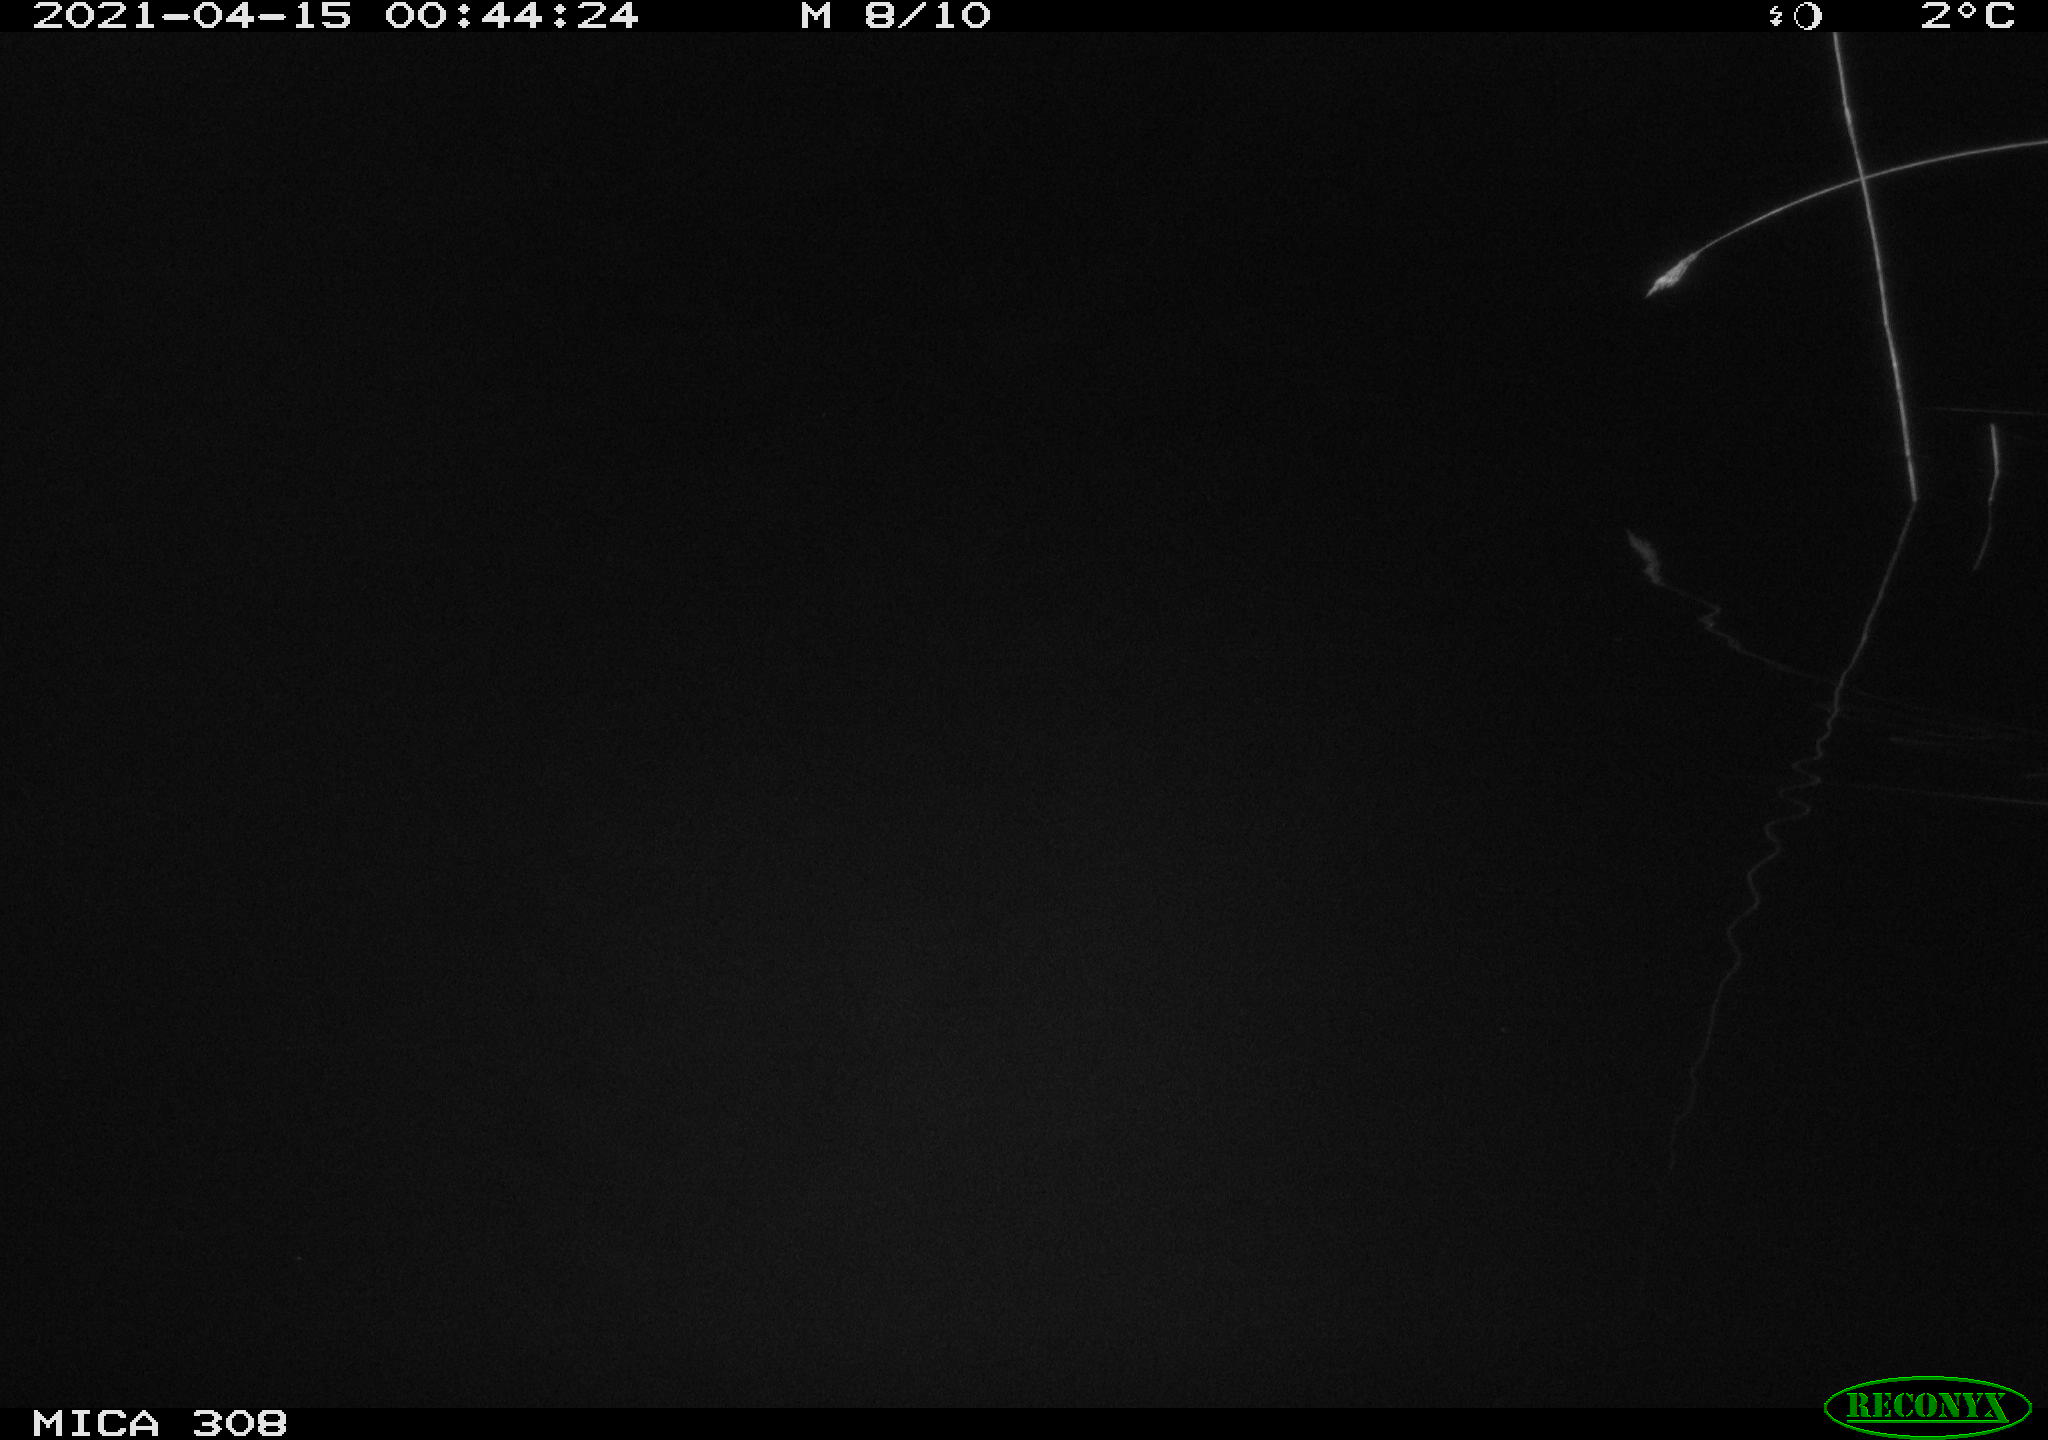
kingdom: Animalia
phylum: Chordata
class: Aves
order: Anseriformes
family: Anatidae
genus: Anas
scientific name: Anas platyrhynchos
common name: Mallard
